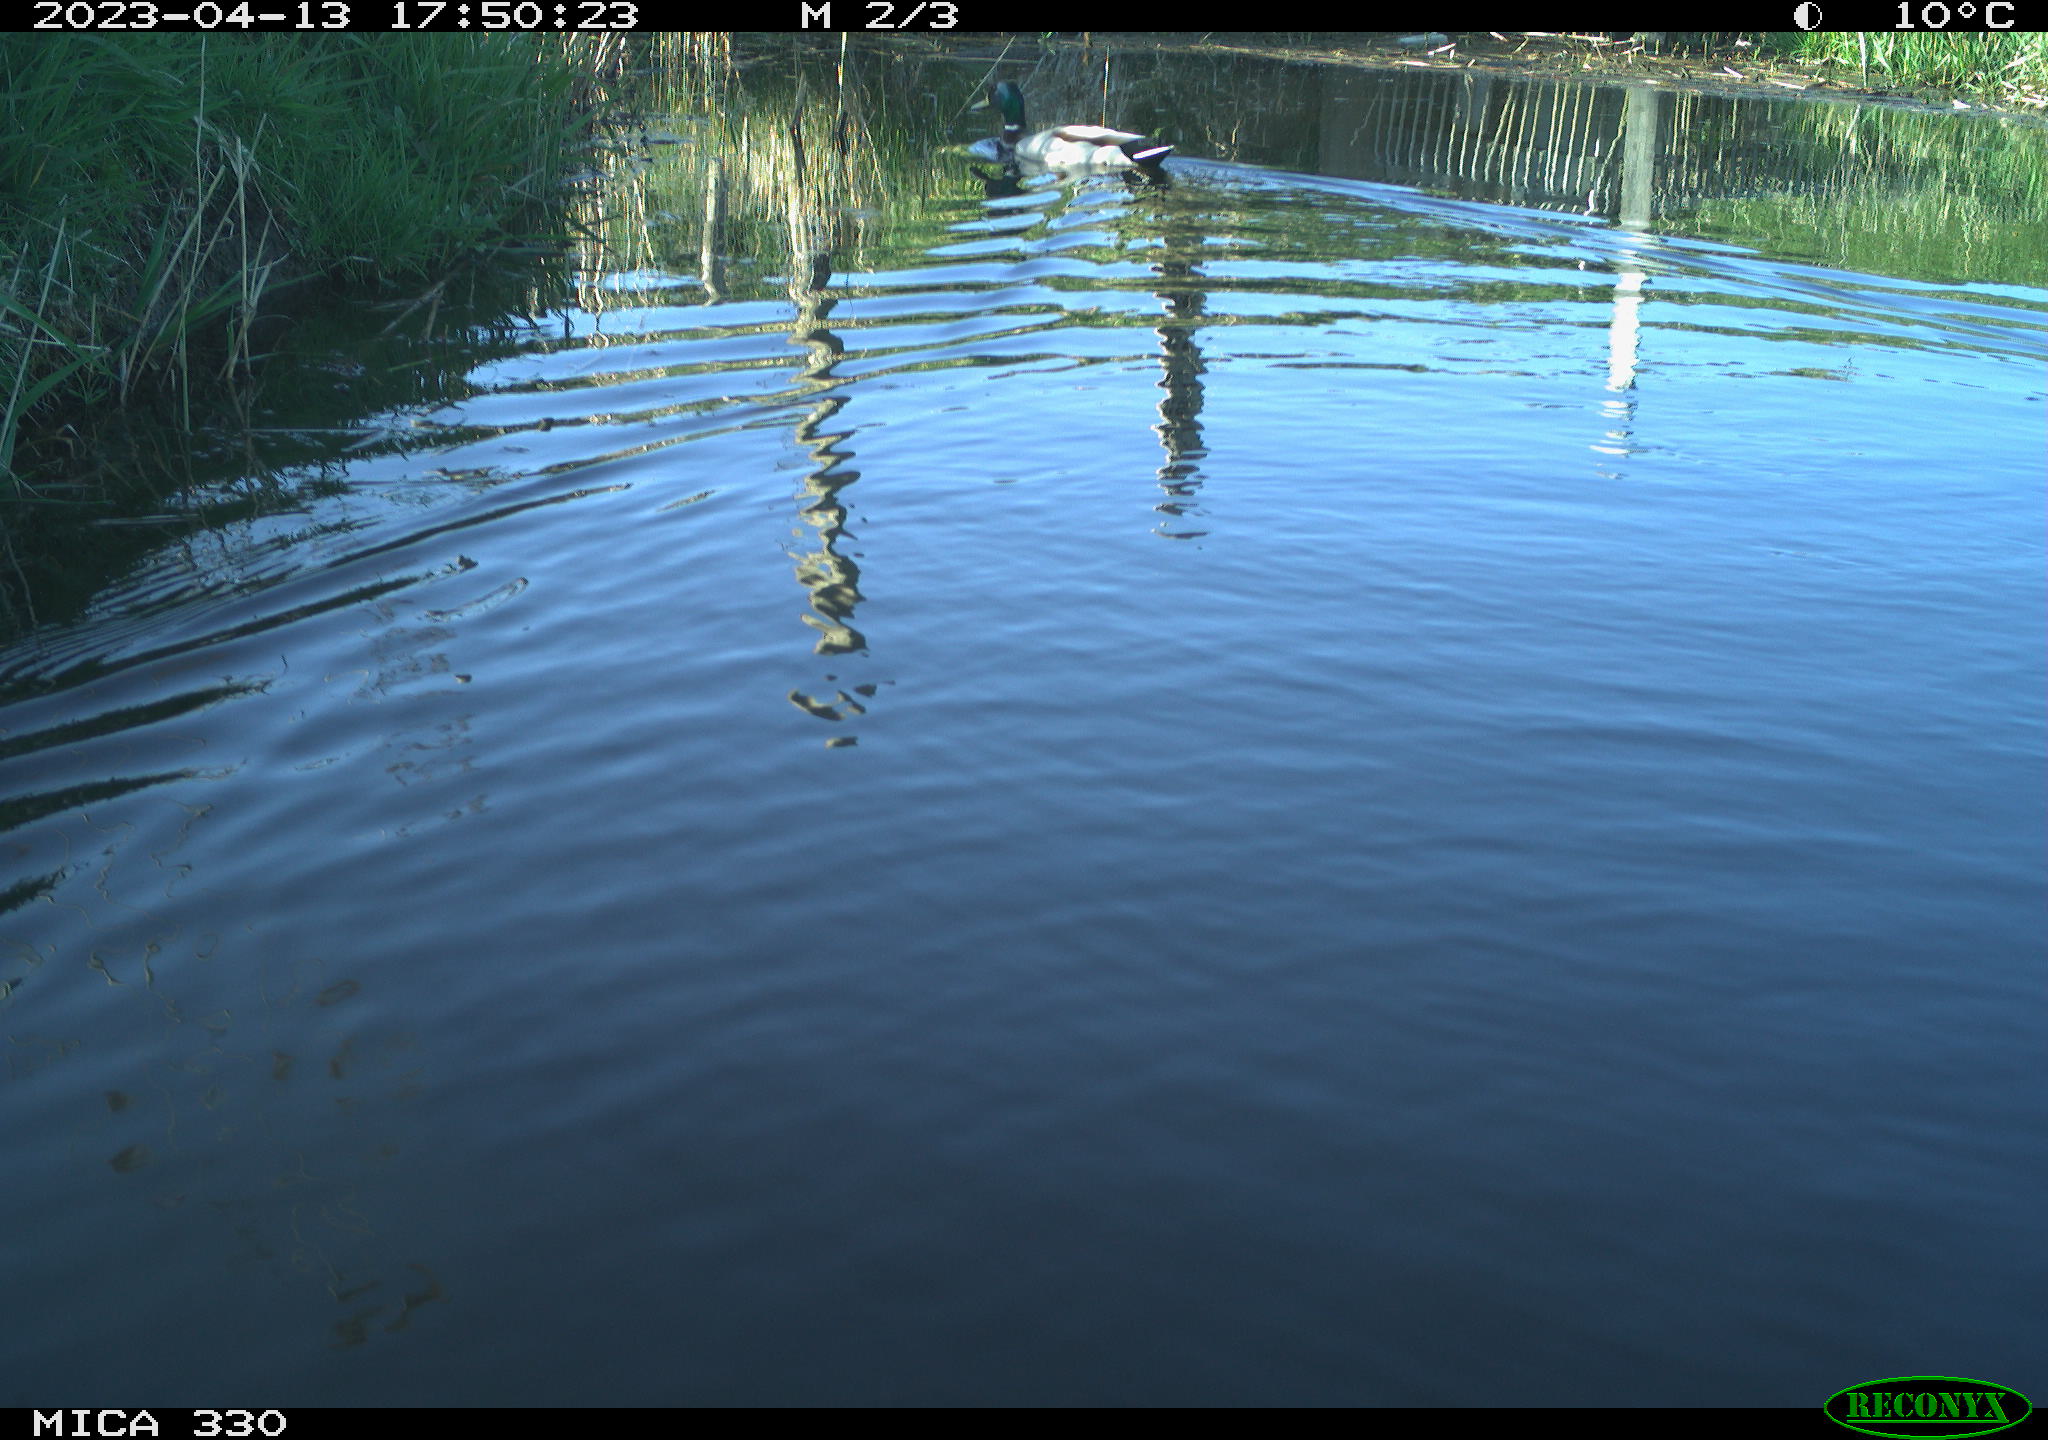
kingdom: Animalia
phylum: Chordata
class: Aves
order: Anseriformes
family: Anatidae
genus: Anas
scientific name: Anas
